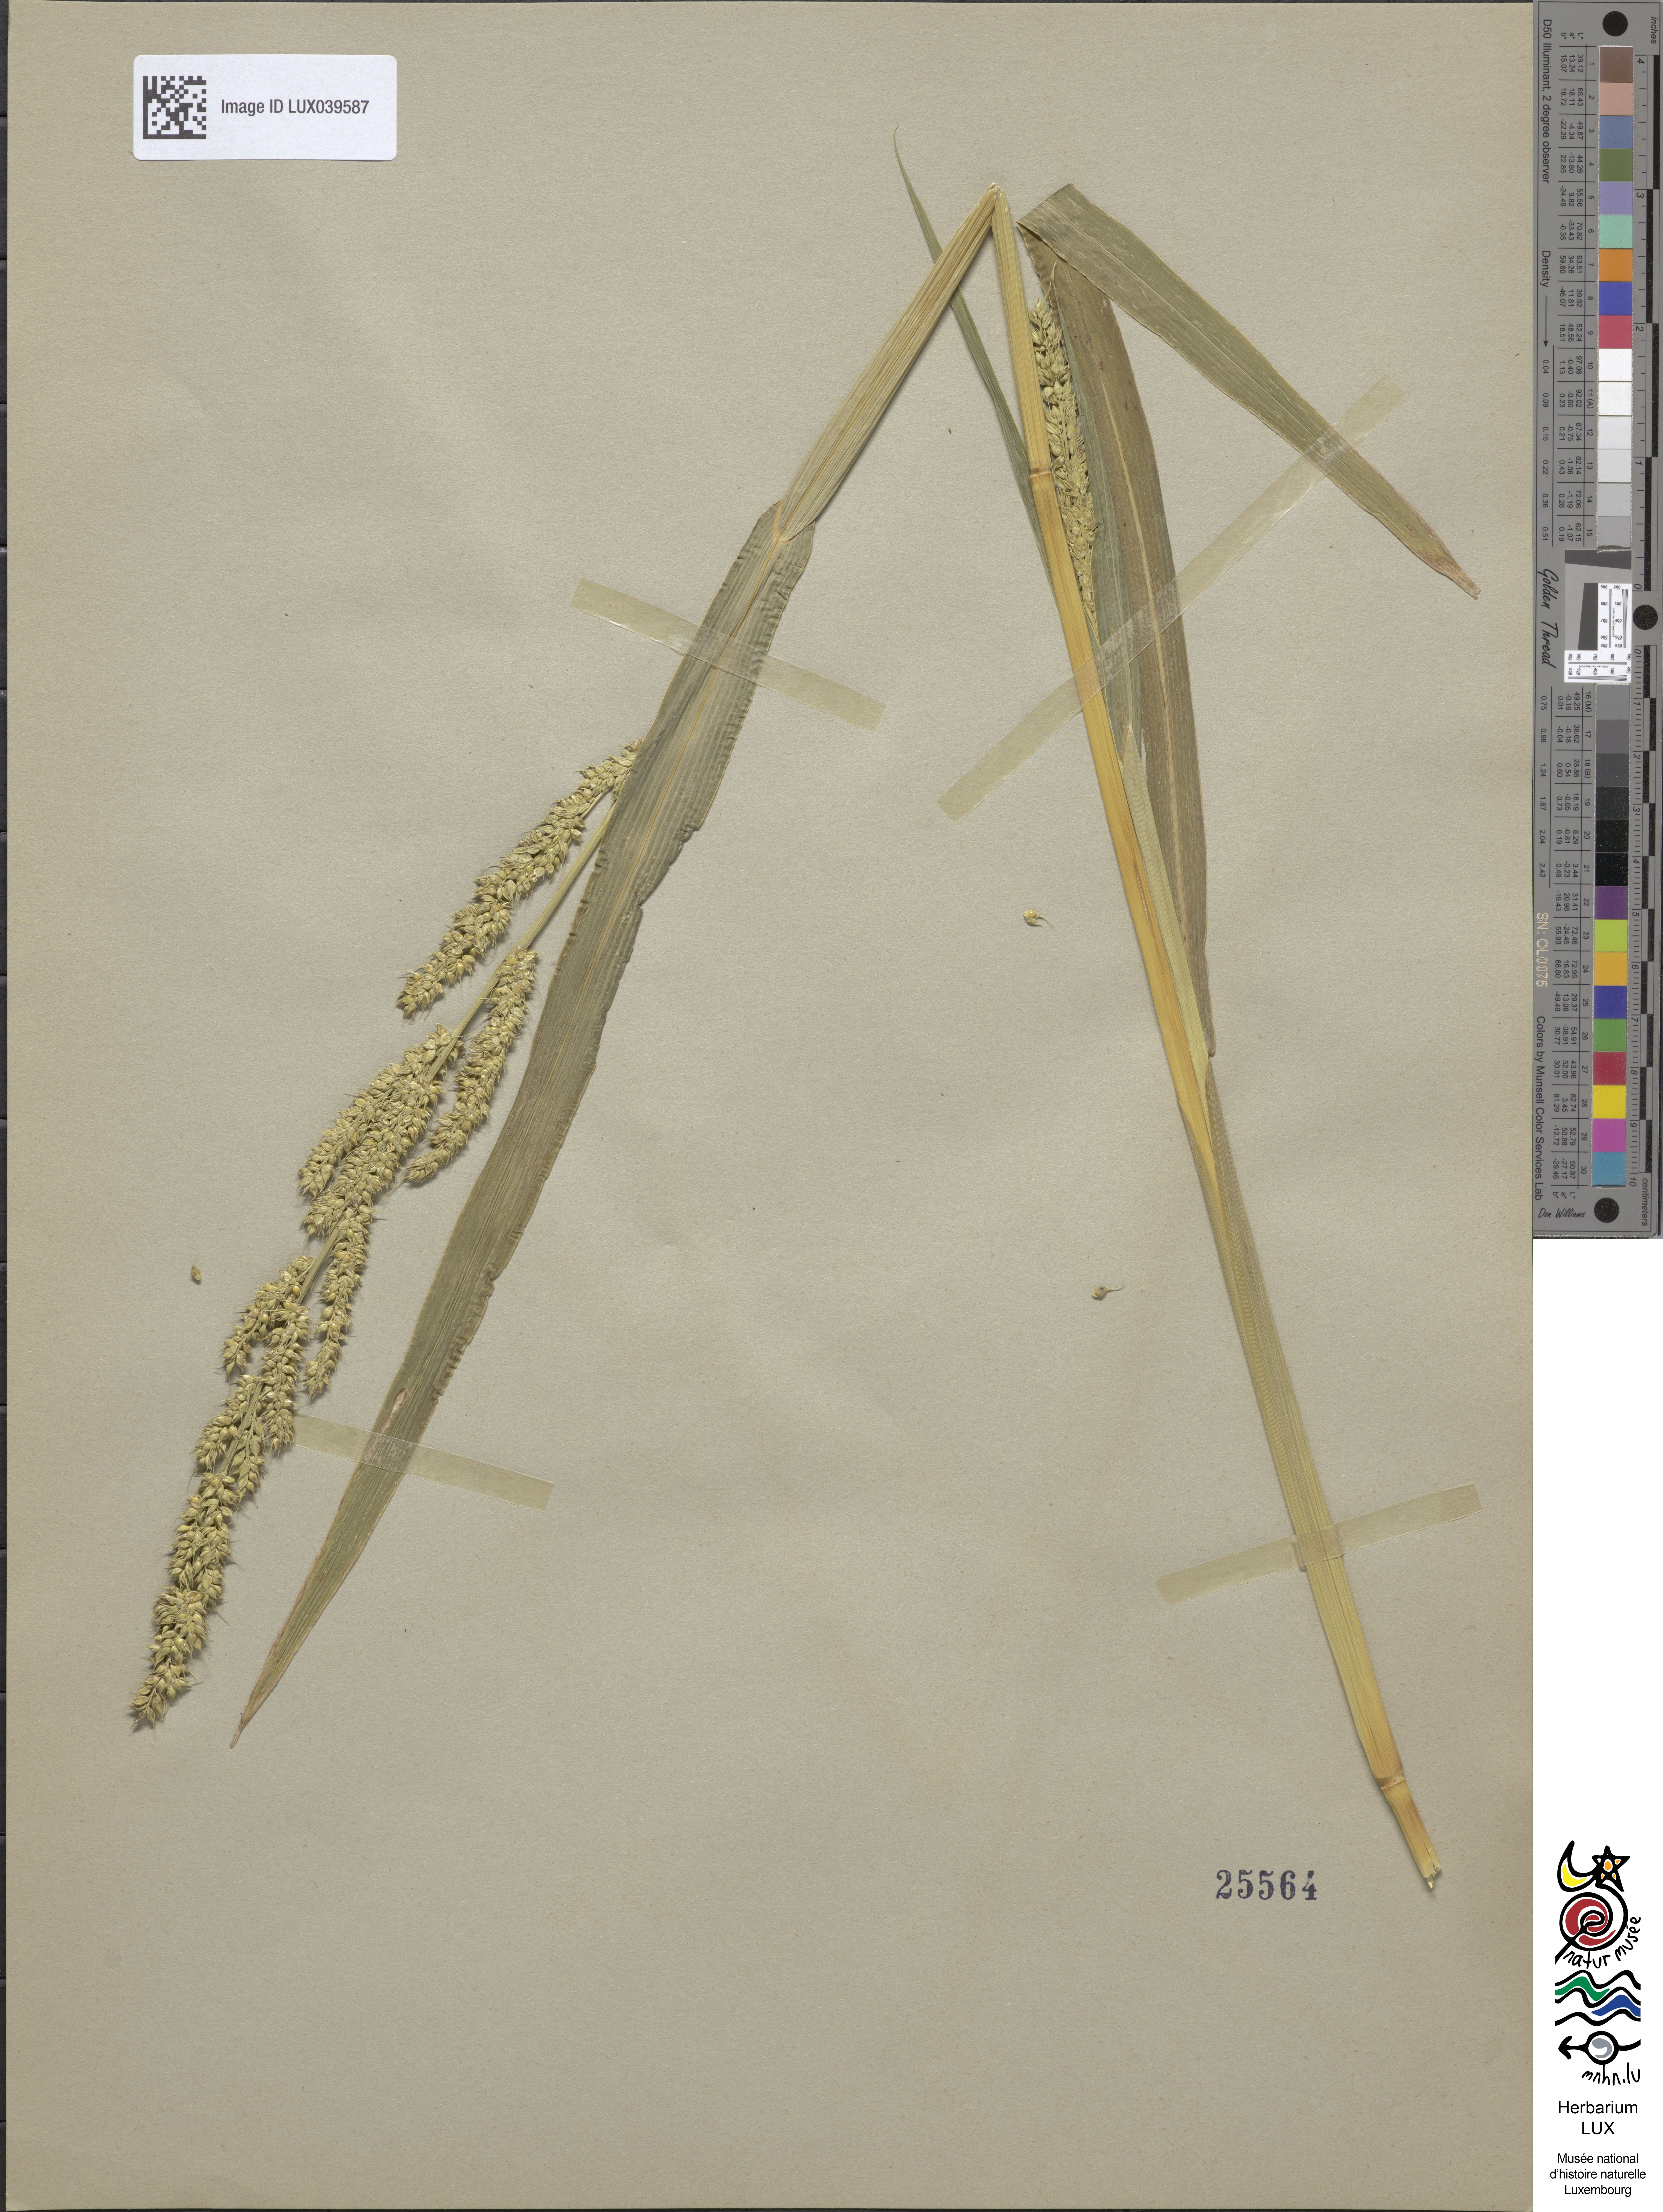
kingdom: Plantae
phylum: Tracheophyta
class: Liliopsida
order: Poales
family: Poaceae
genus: Echinochloa
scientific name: Echinochloa frumentacea
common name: Billion-dollar grass
